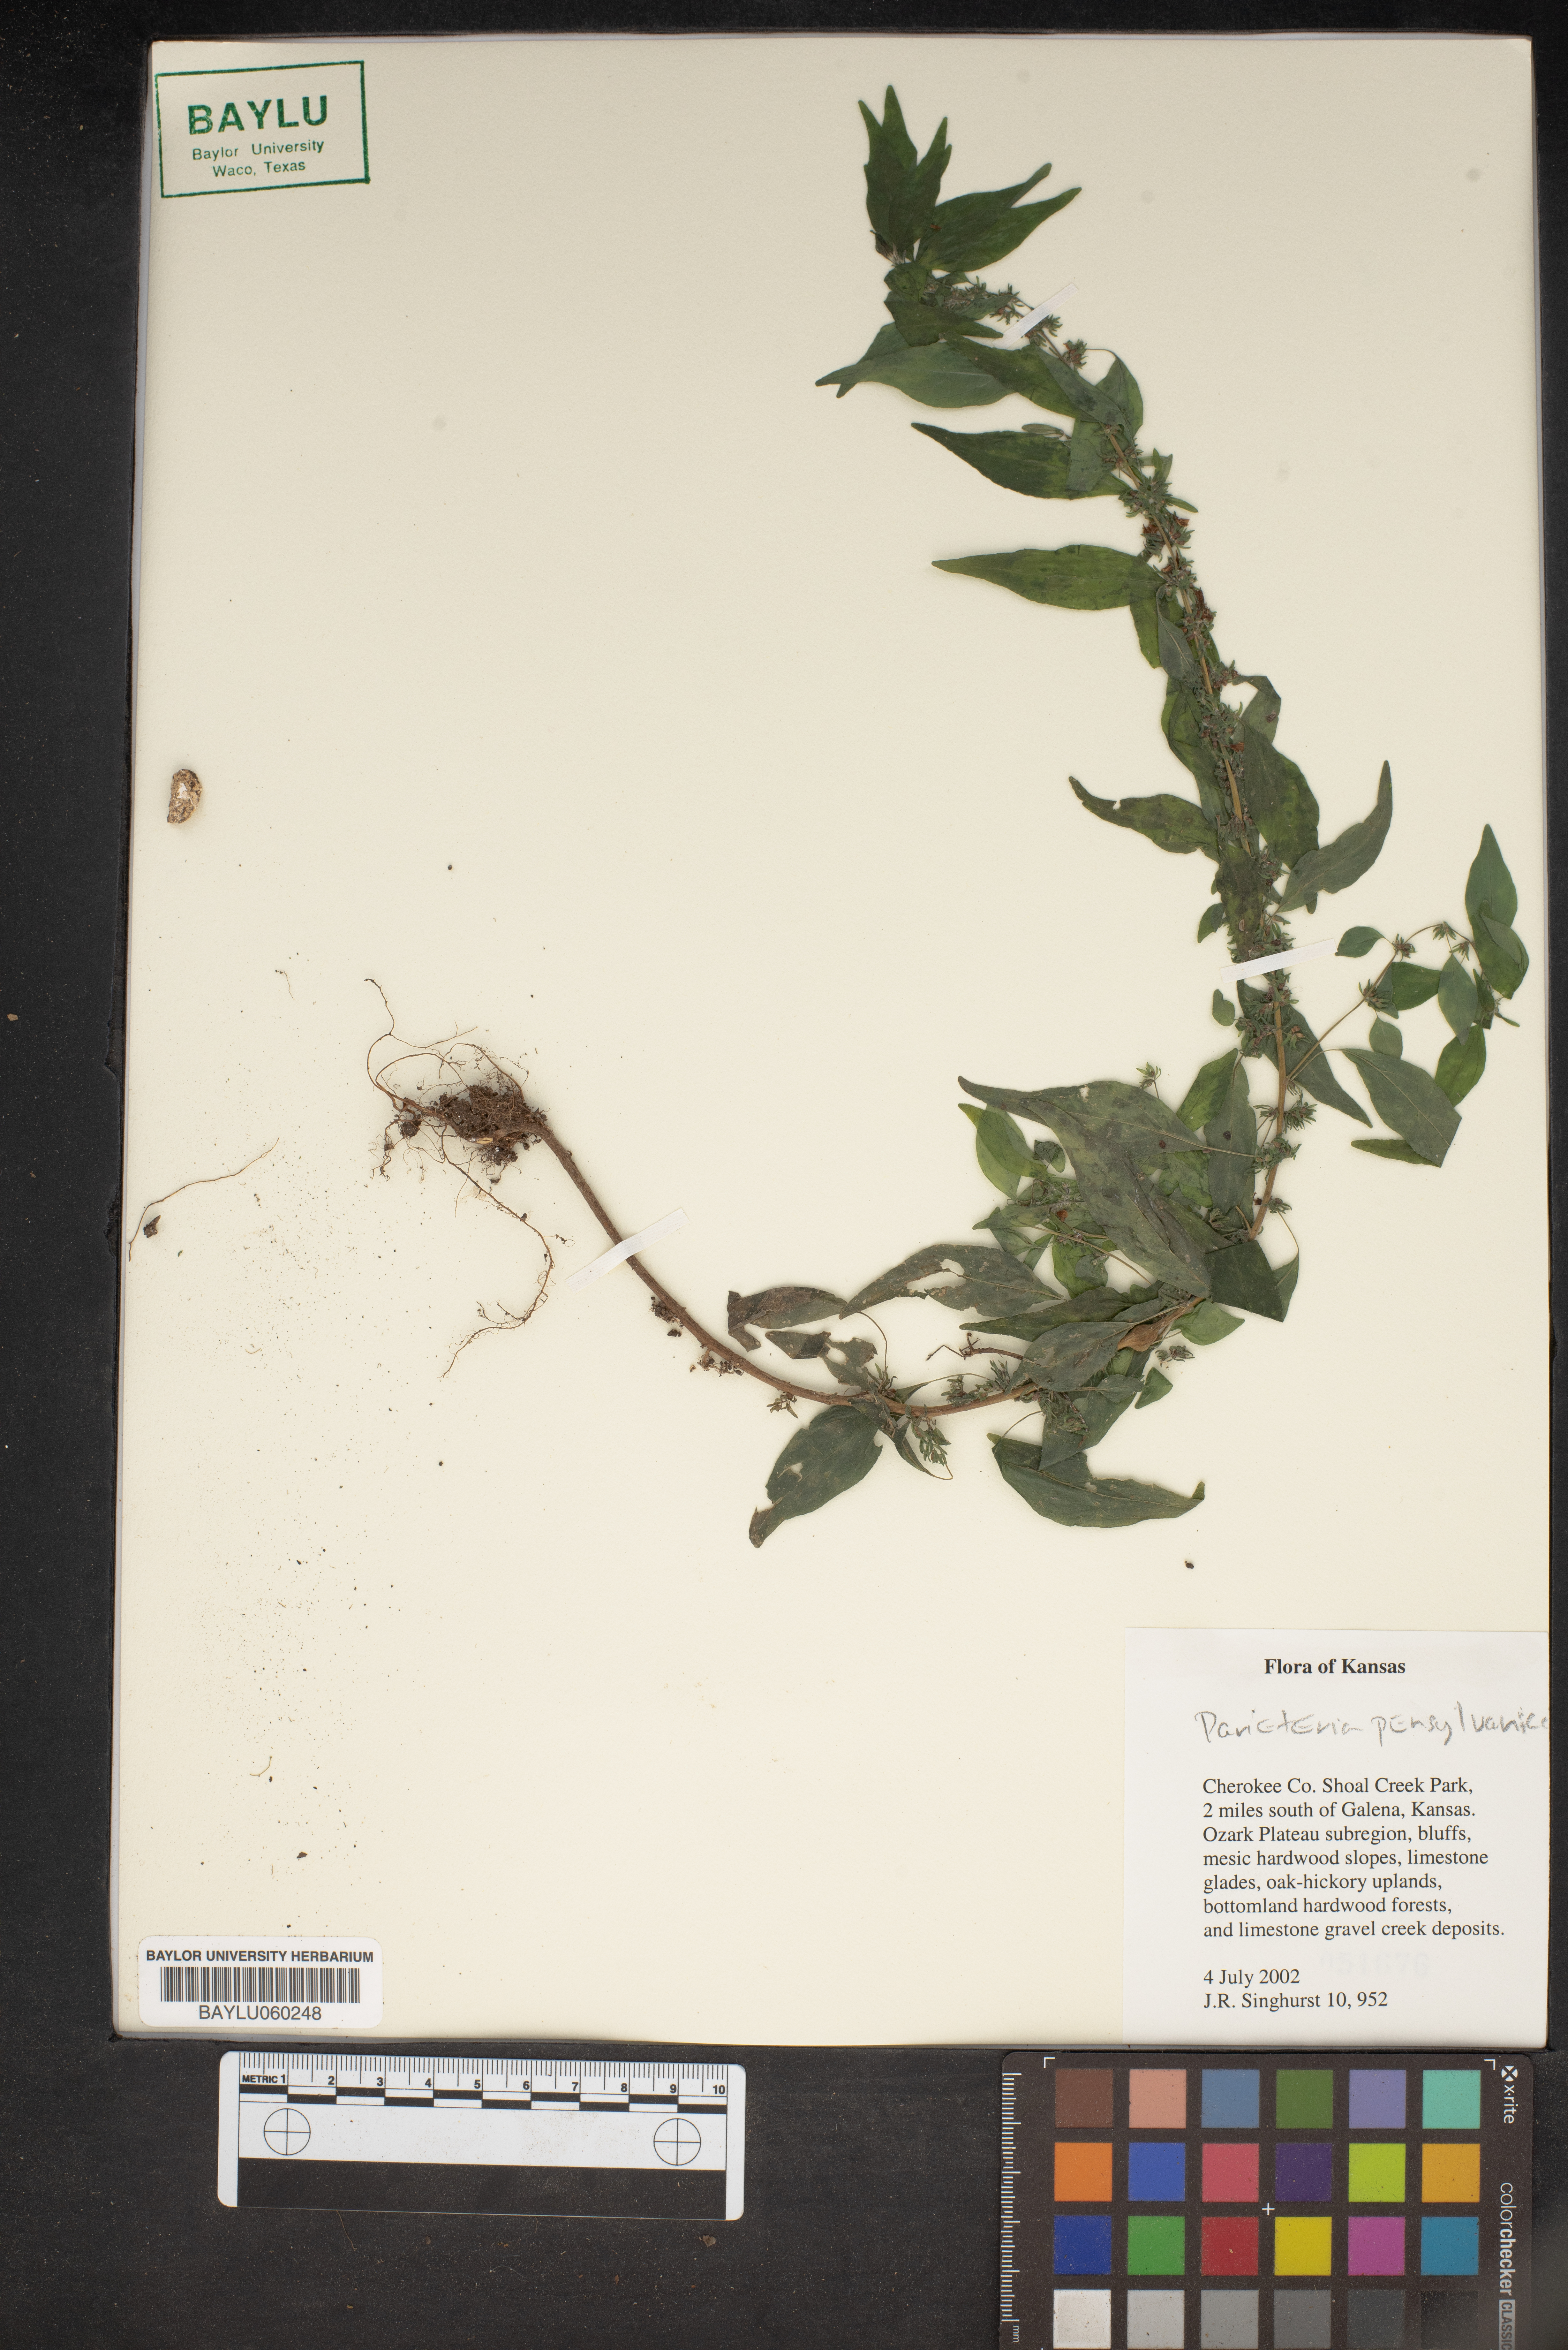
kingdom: Plantae
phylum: Tracheophyta
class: Magnoliopsida
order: Rosales
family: Urticaceae
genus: Parietaria
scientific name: Parietaria pensylvanica
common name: Pennsylvania pellitory
